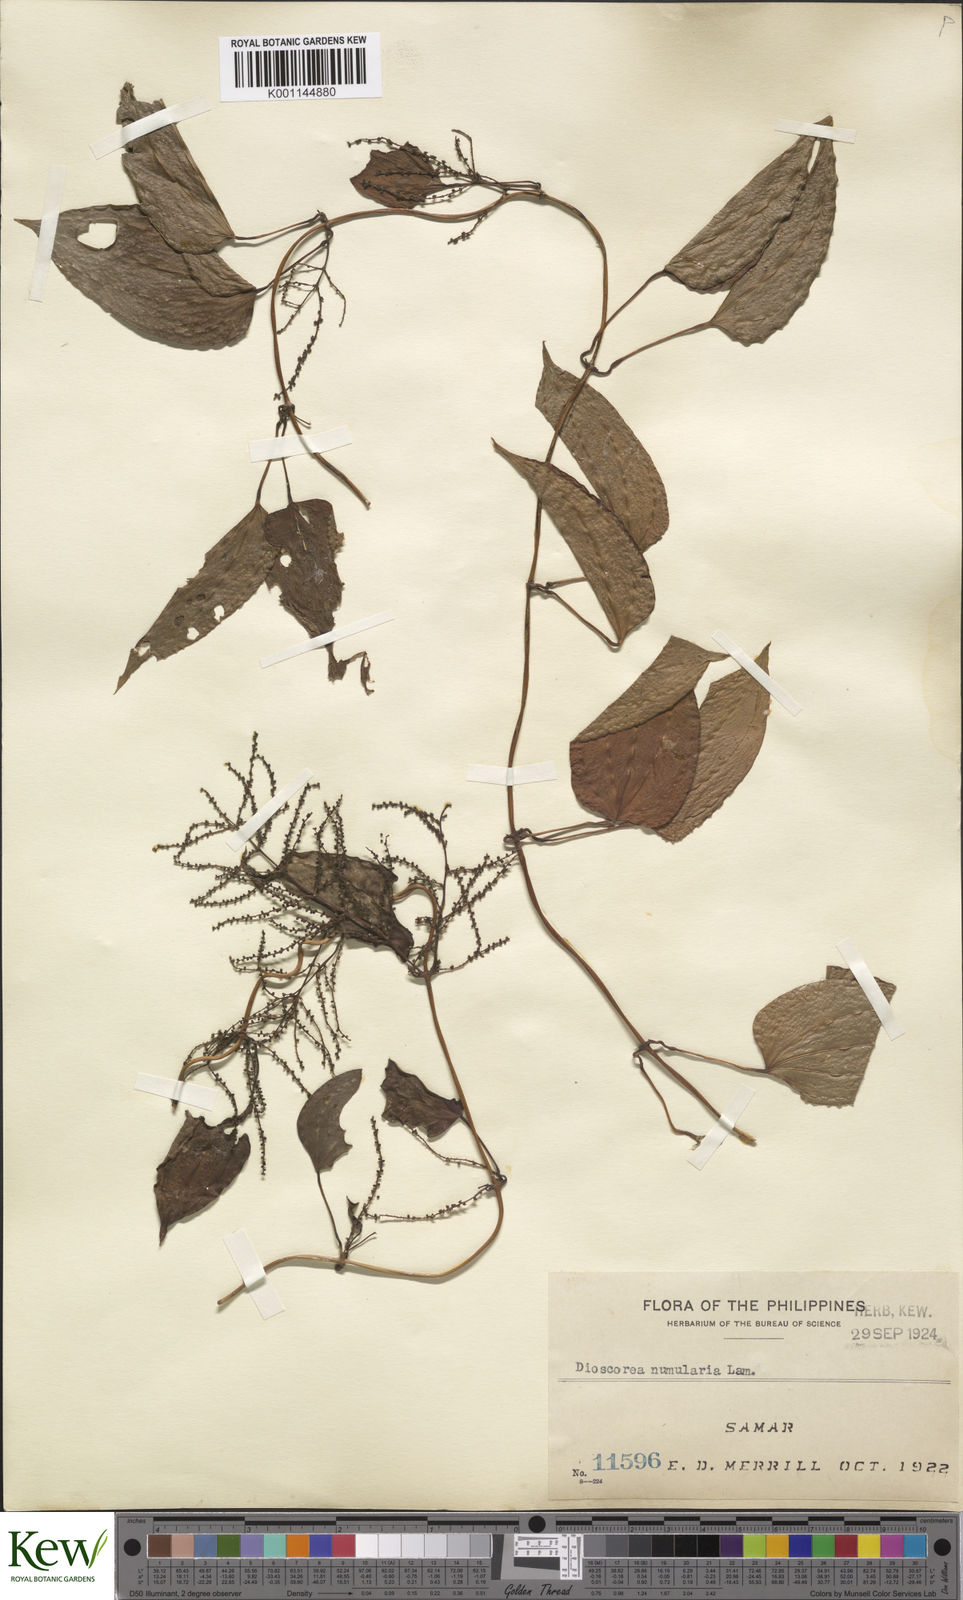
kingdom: Plantae
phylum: Tracheophyta
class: Liliopsida
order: Dioscoreales
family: Dioscoreaceae
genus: Dioscorea
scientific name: Dioscorea nummularia
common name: Pacific yam
